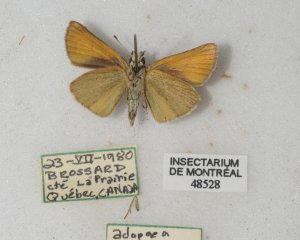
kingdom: Animalia
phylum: Arthropoda
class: Insecta
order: Lepidoptera
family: Hesperiidae
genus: Thymelicus
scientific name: Thymelicus lineola
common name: European Skipper
